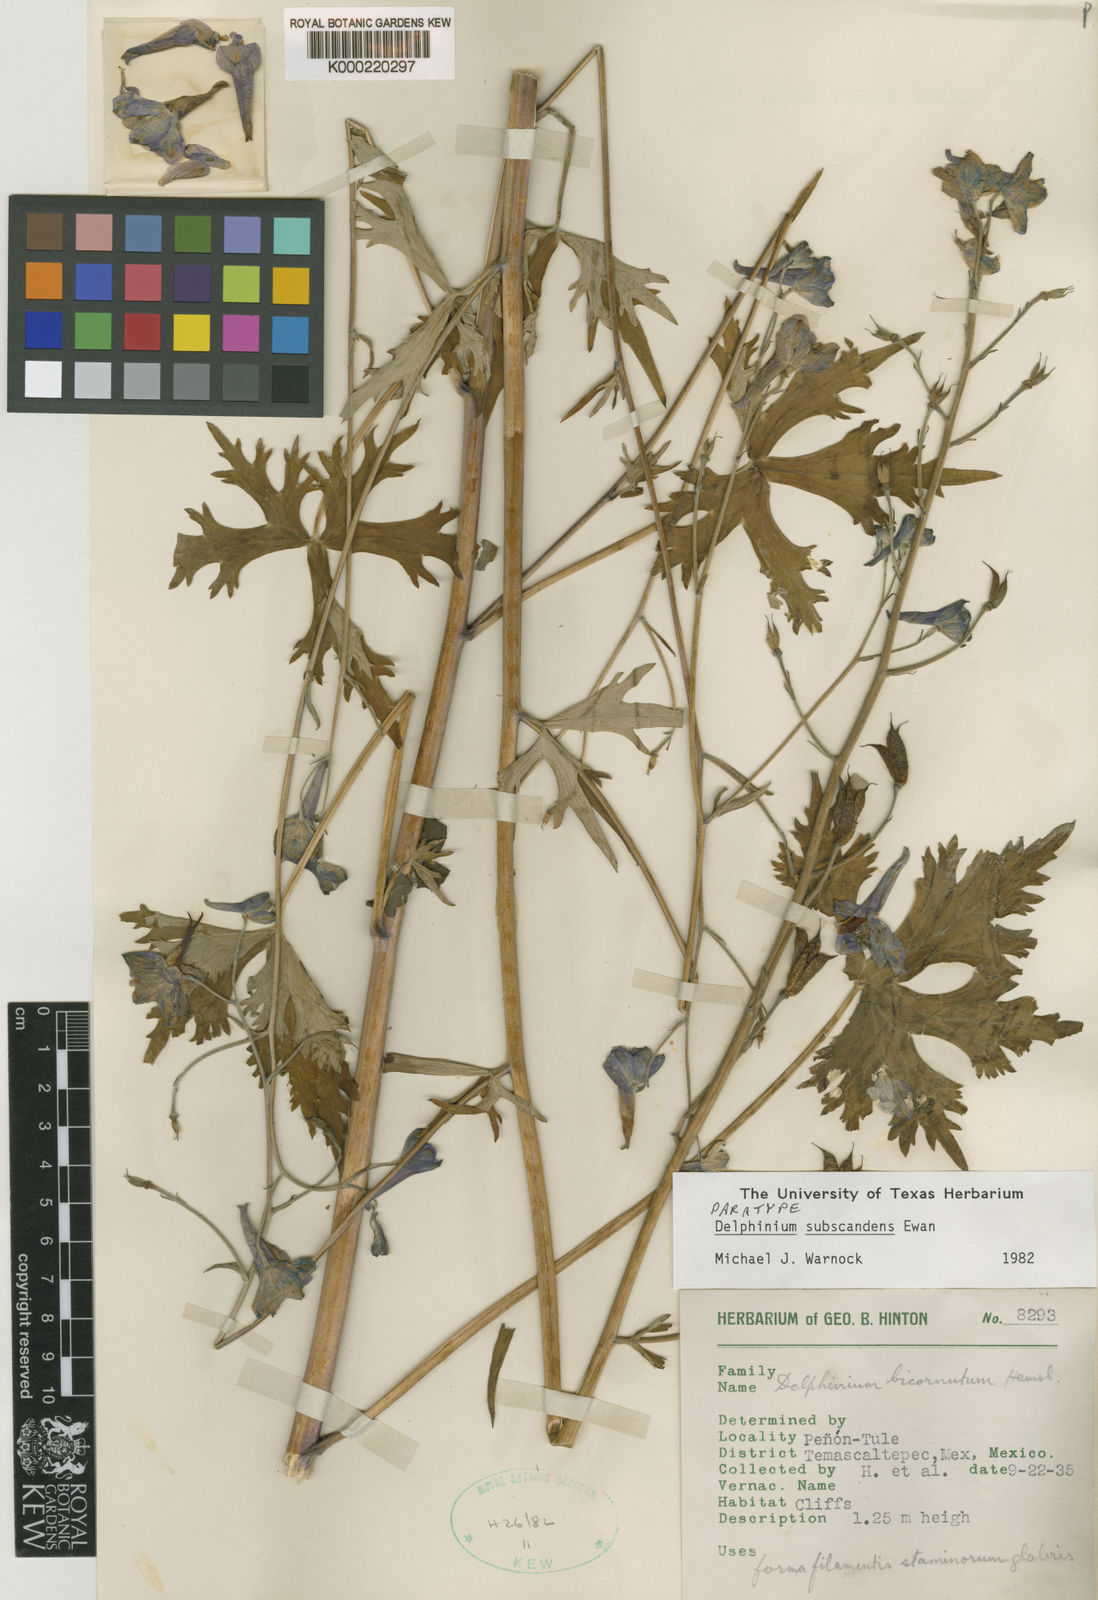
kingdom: Plantae
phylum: Tracheophyta
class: Magnoliopsida
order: Ranunculales
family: Ranunculaceae
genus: Delphinium
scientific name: Delphinium subscandens
